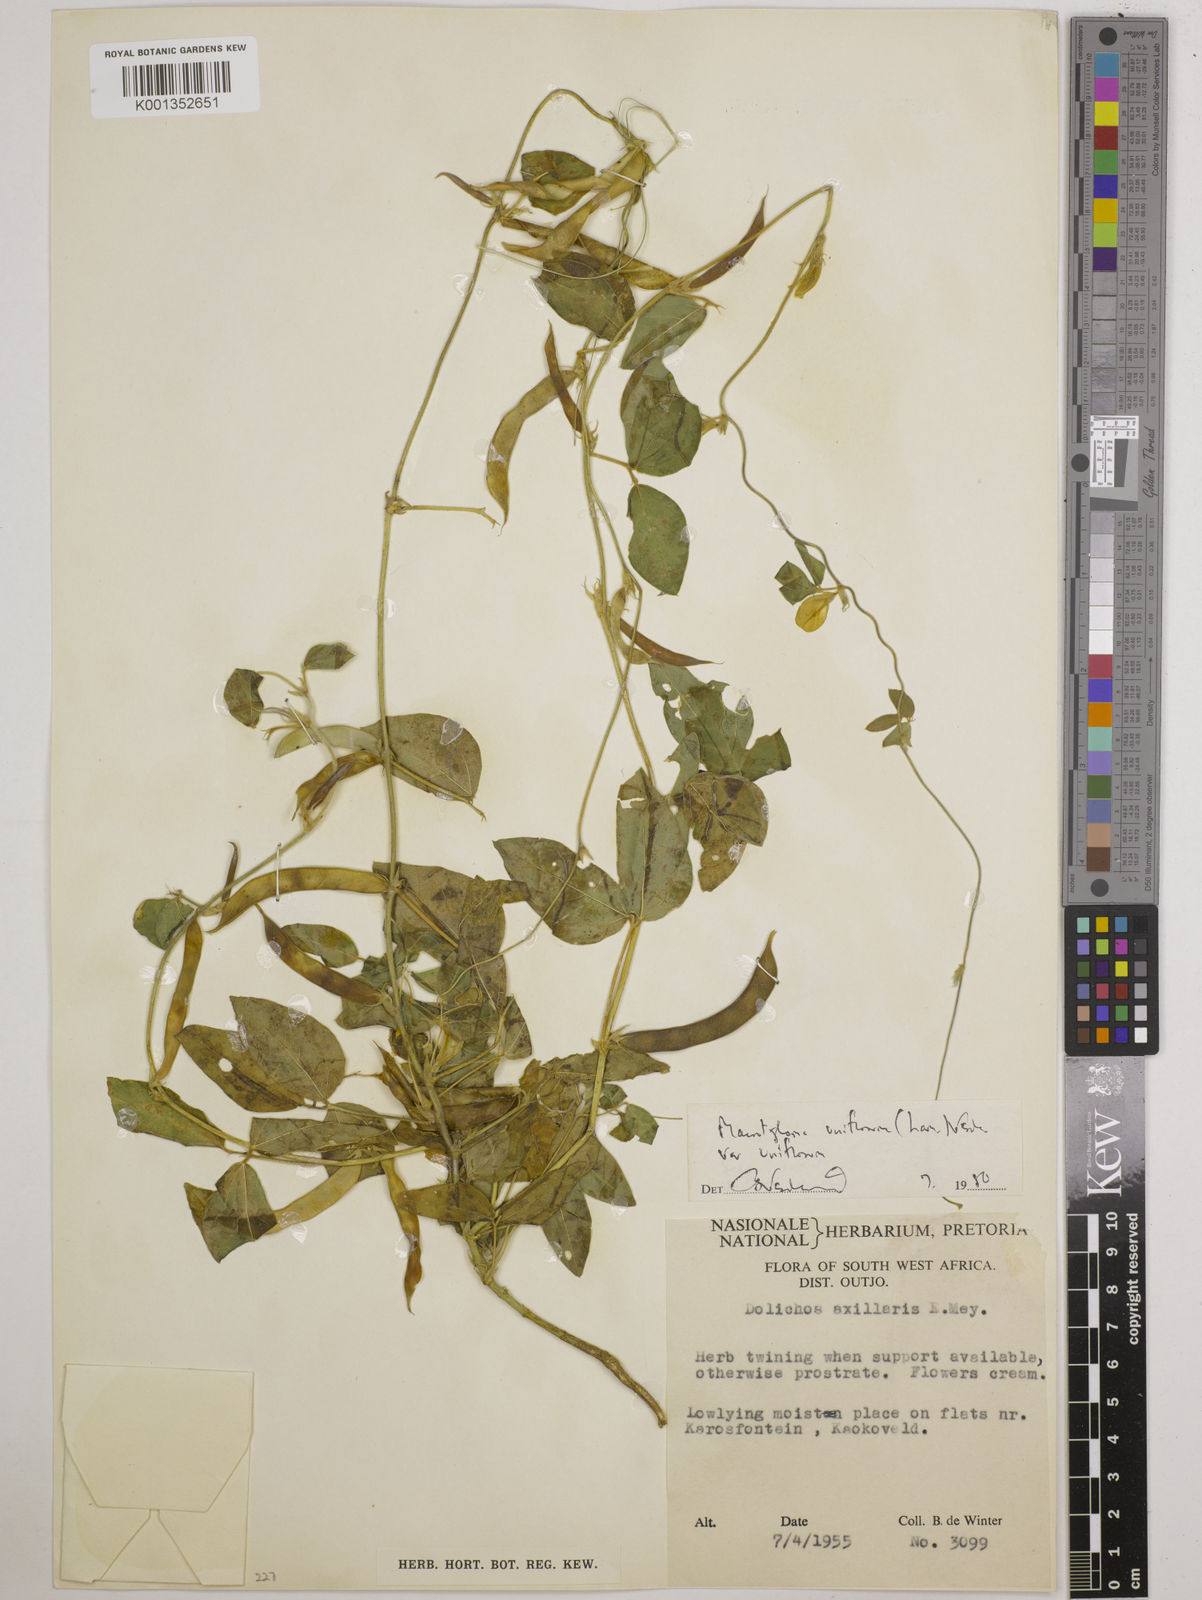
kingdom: Plantae
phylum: Tracheophyta
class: Magnoliopsida
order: Fabales
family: Fabaceae
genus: Macrotyloma
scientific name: Macrotyloma uniflorum
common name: Horse gram
